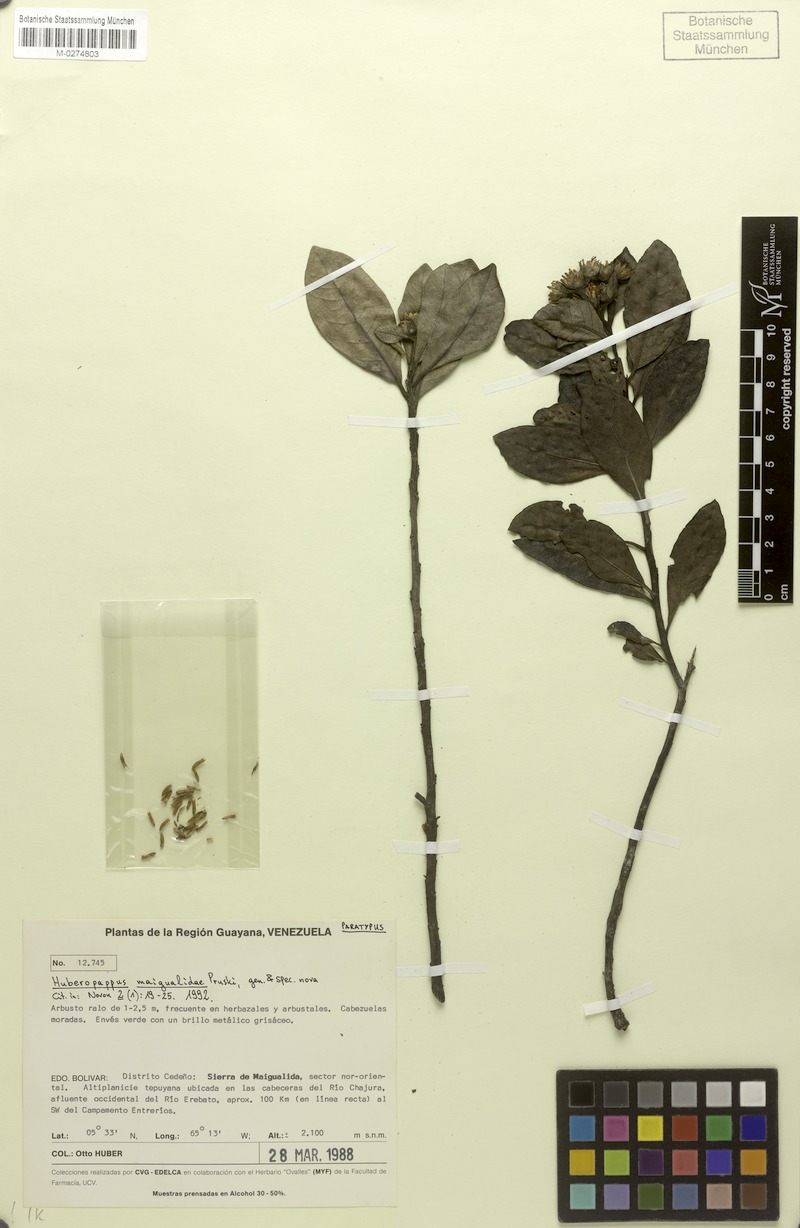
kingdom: Plantae
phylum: Tracheophyta
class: Magnoliopsida
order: Asterales
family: Asteraceae
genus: Huberopappus
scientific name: Huberopappus maigualidae
